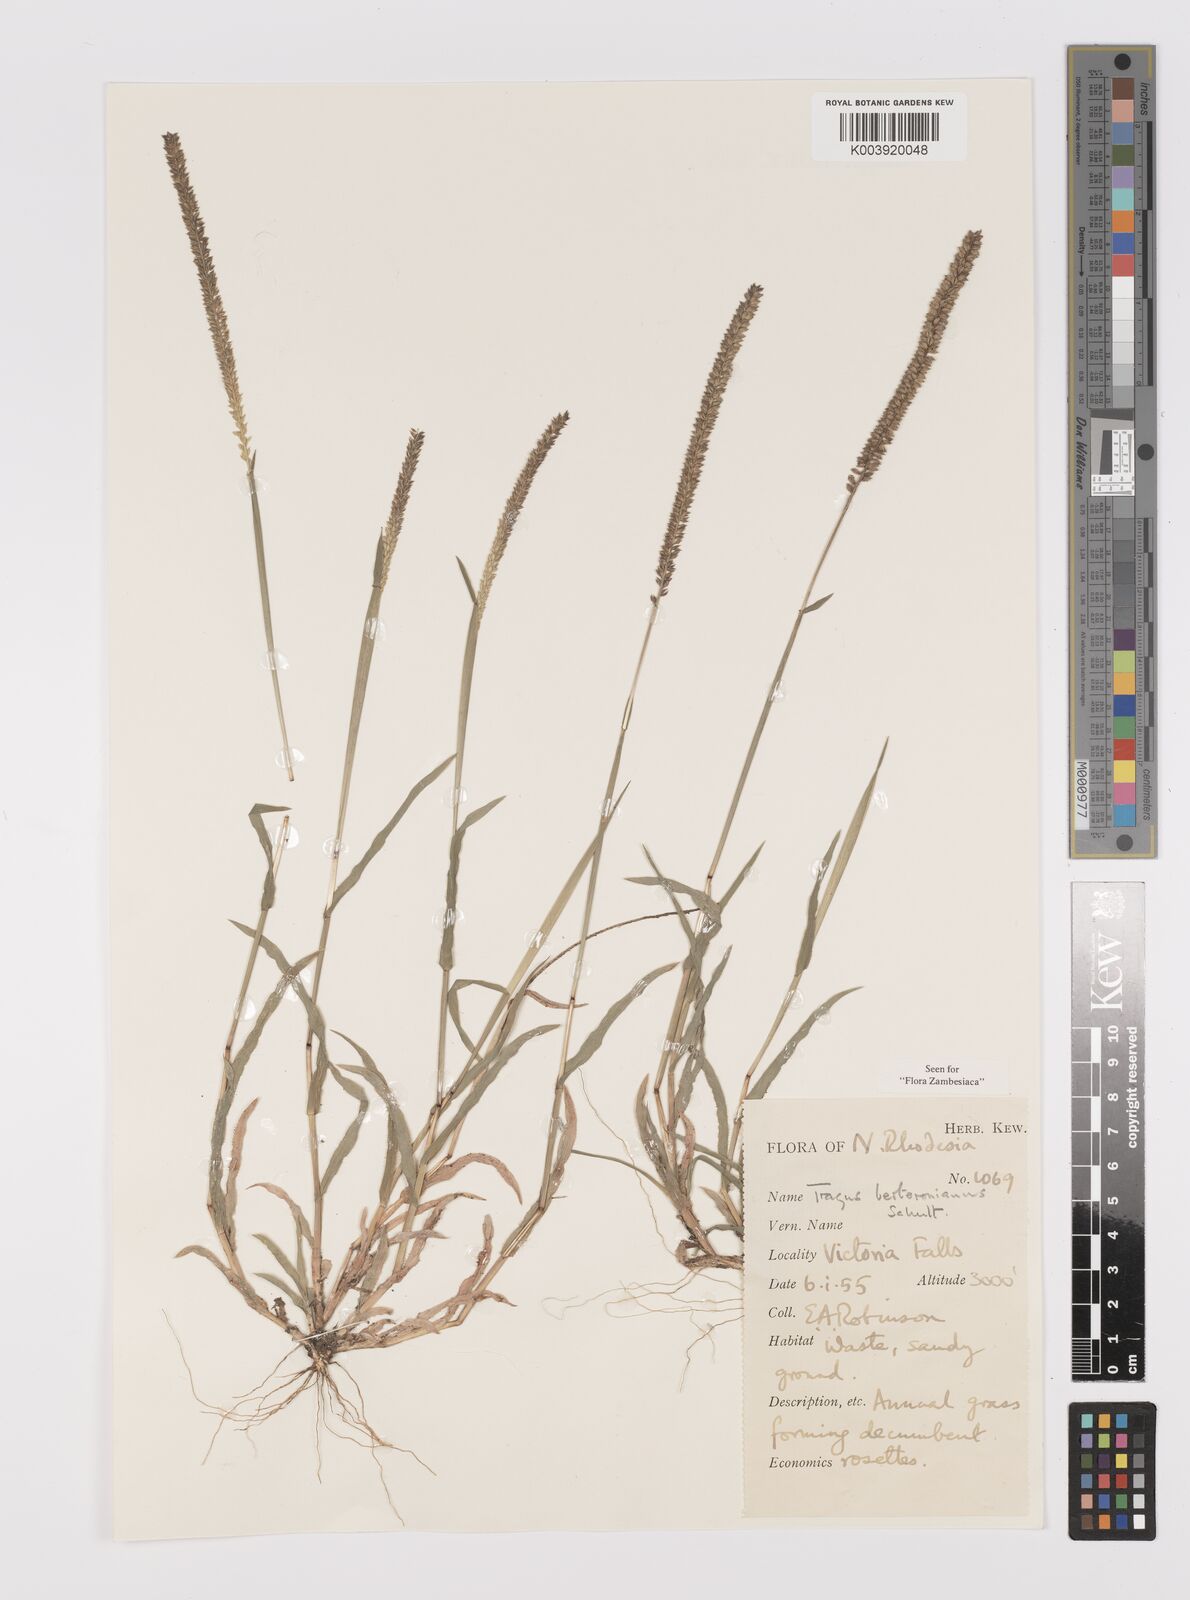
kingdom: Plantae
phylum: Tracheophyta
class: Liliopsida
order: Poales
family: Poaceae
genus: Tragus
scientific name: Tragus berteronianus
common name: African bur-grass
